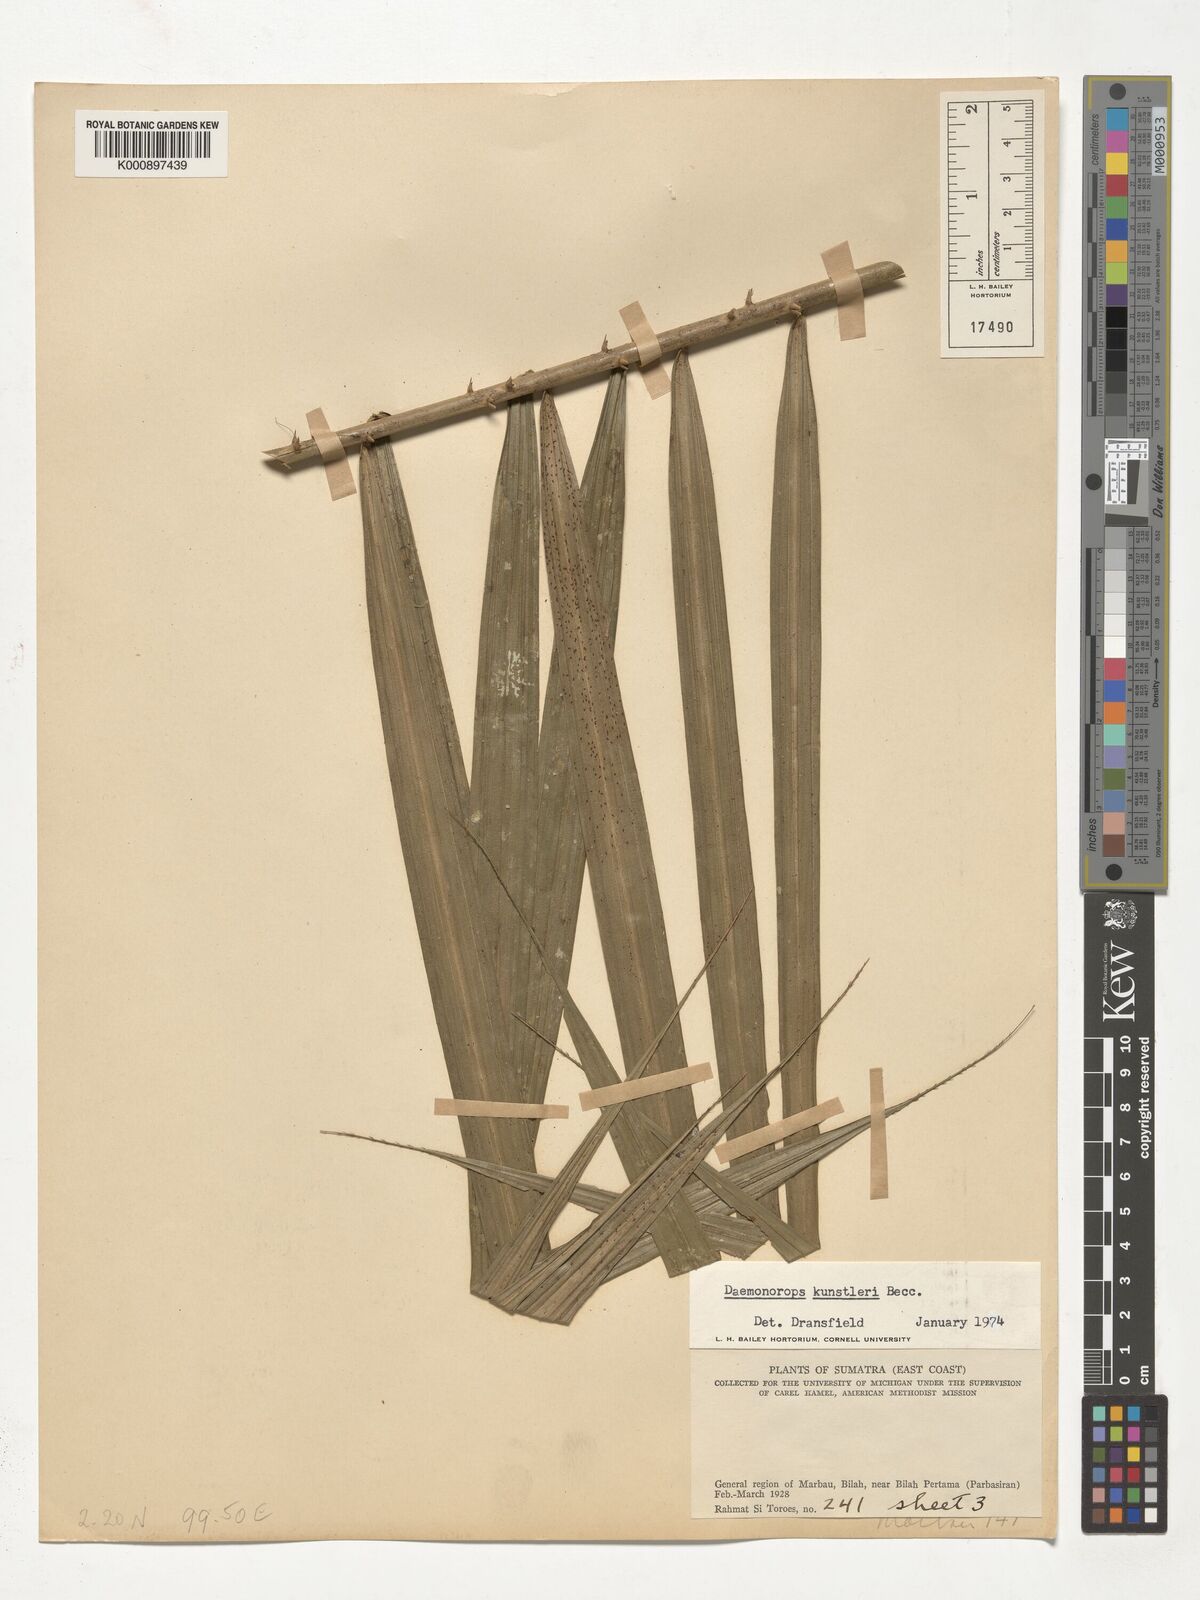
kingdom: Plantae
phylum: Tracheophyta
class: Liliopsida
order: Arecales
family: Arecaceae
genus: Calamus
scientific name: Calamus kunstleri
